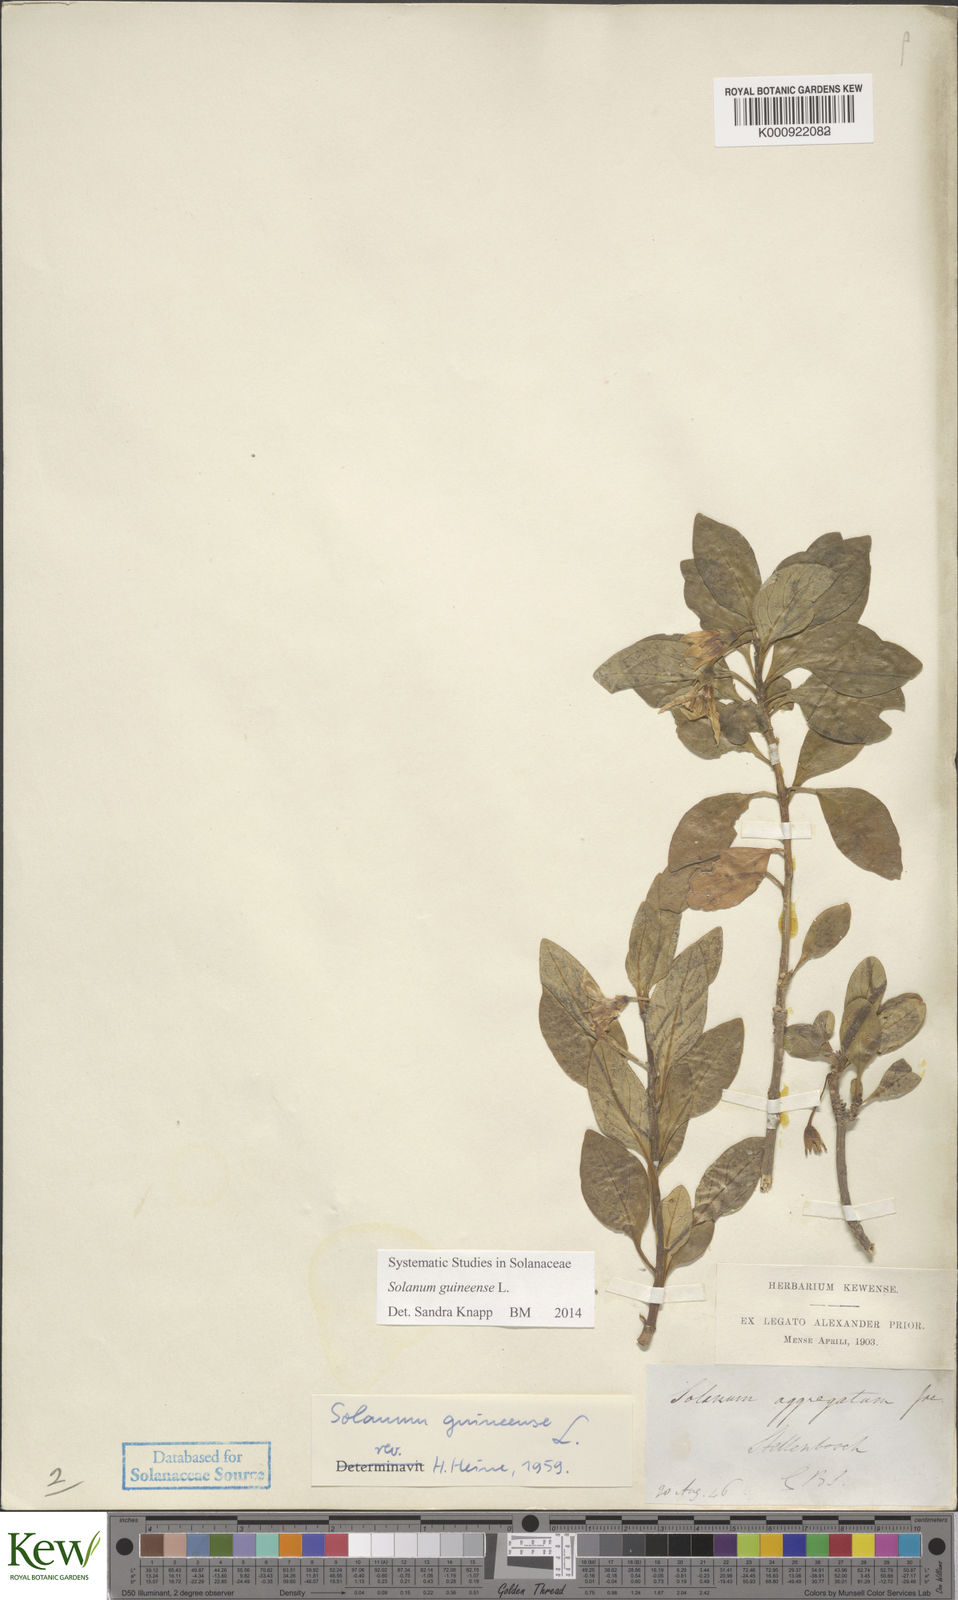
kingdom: Plantae
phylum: Tracheophyta
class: Magnoliopsida
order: Solanales
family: Solanaceae
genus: Solanum
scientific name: Solanum guineense
